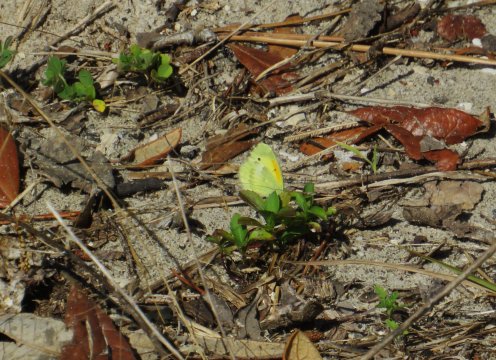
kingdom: Animalia
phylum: Arthropoda
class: Insecta
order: Lepidoptera
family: Pieridae
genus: Nathalis
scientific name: Nathalis iole
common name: Dainty Sulphur
